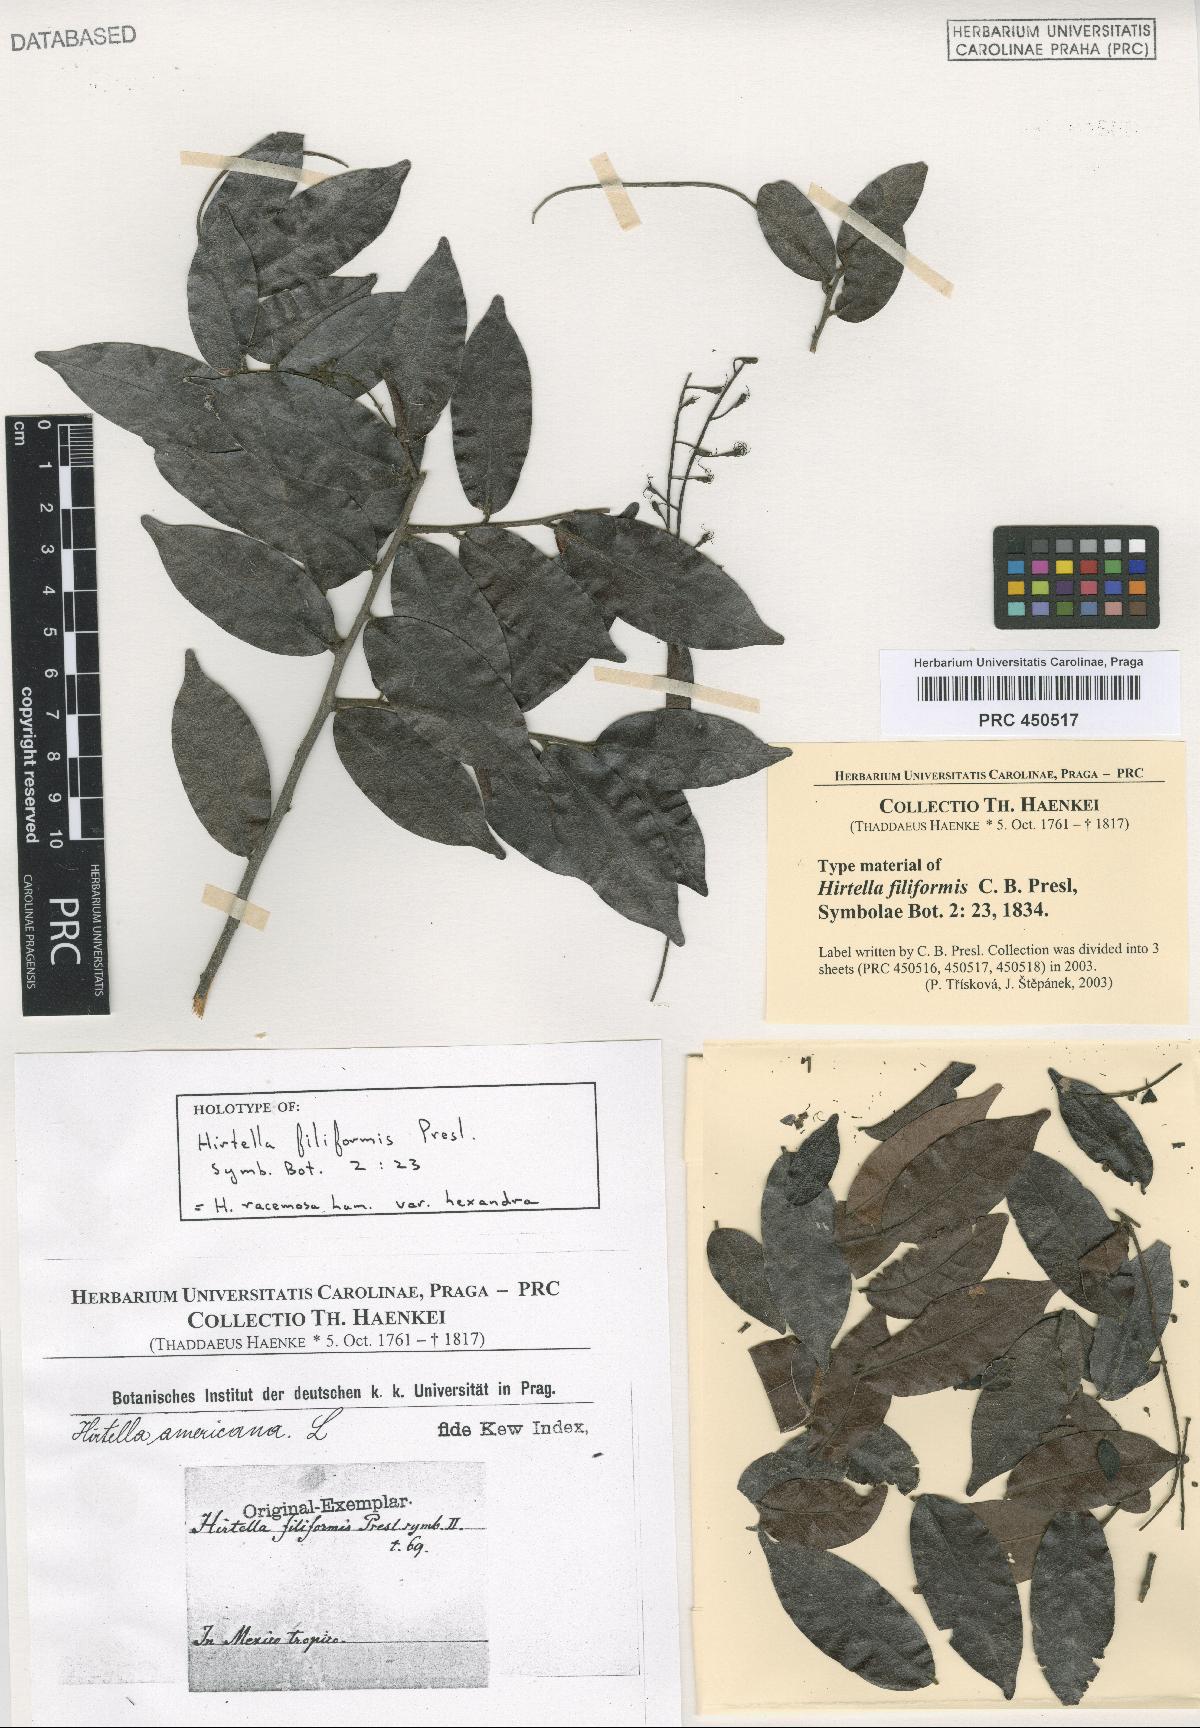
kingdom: Plantae
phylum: Tracheophyta
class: Magnoliopsida
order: Malpighiales
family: Chrysobalanaceae
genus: Hirtella
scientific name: Hirtella racemosa
